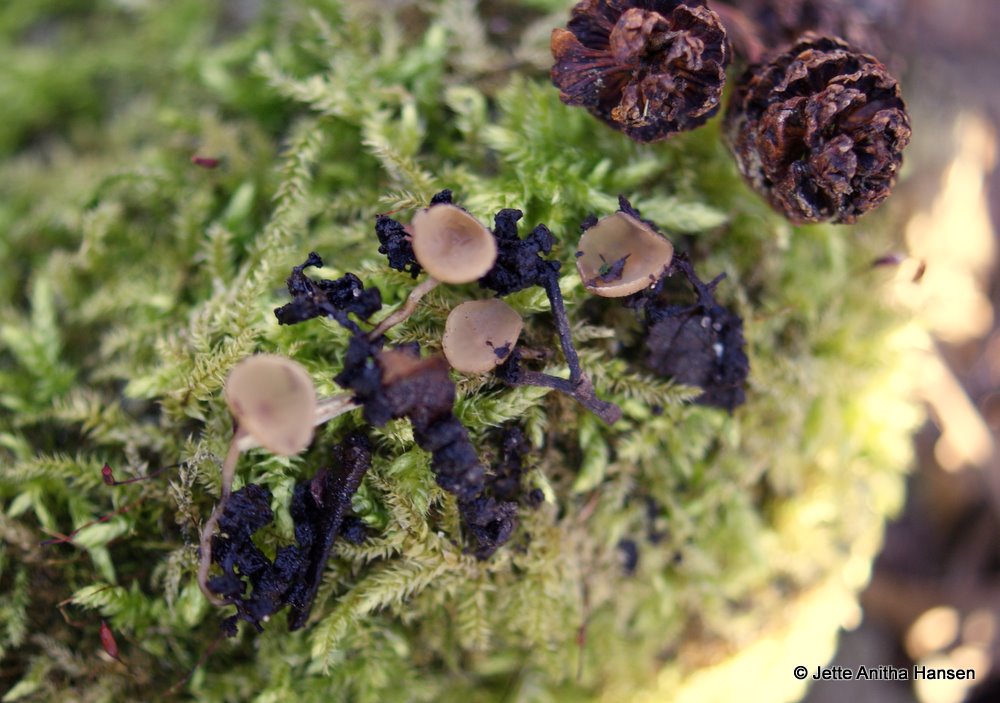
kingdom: Fungi
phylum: Ascomycota
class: Leotiomycetes
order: Helotiales
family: Sclerotiniaceae
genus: Ciboria
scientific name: Ciboria amentacea
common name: ellerakle-knoldskive
